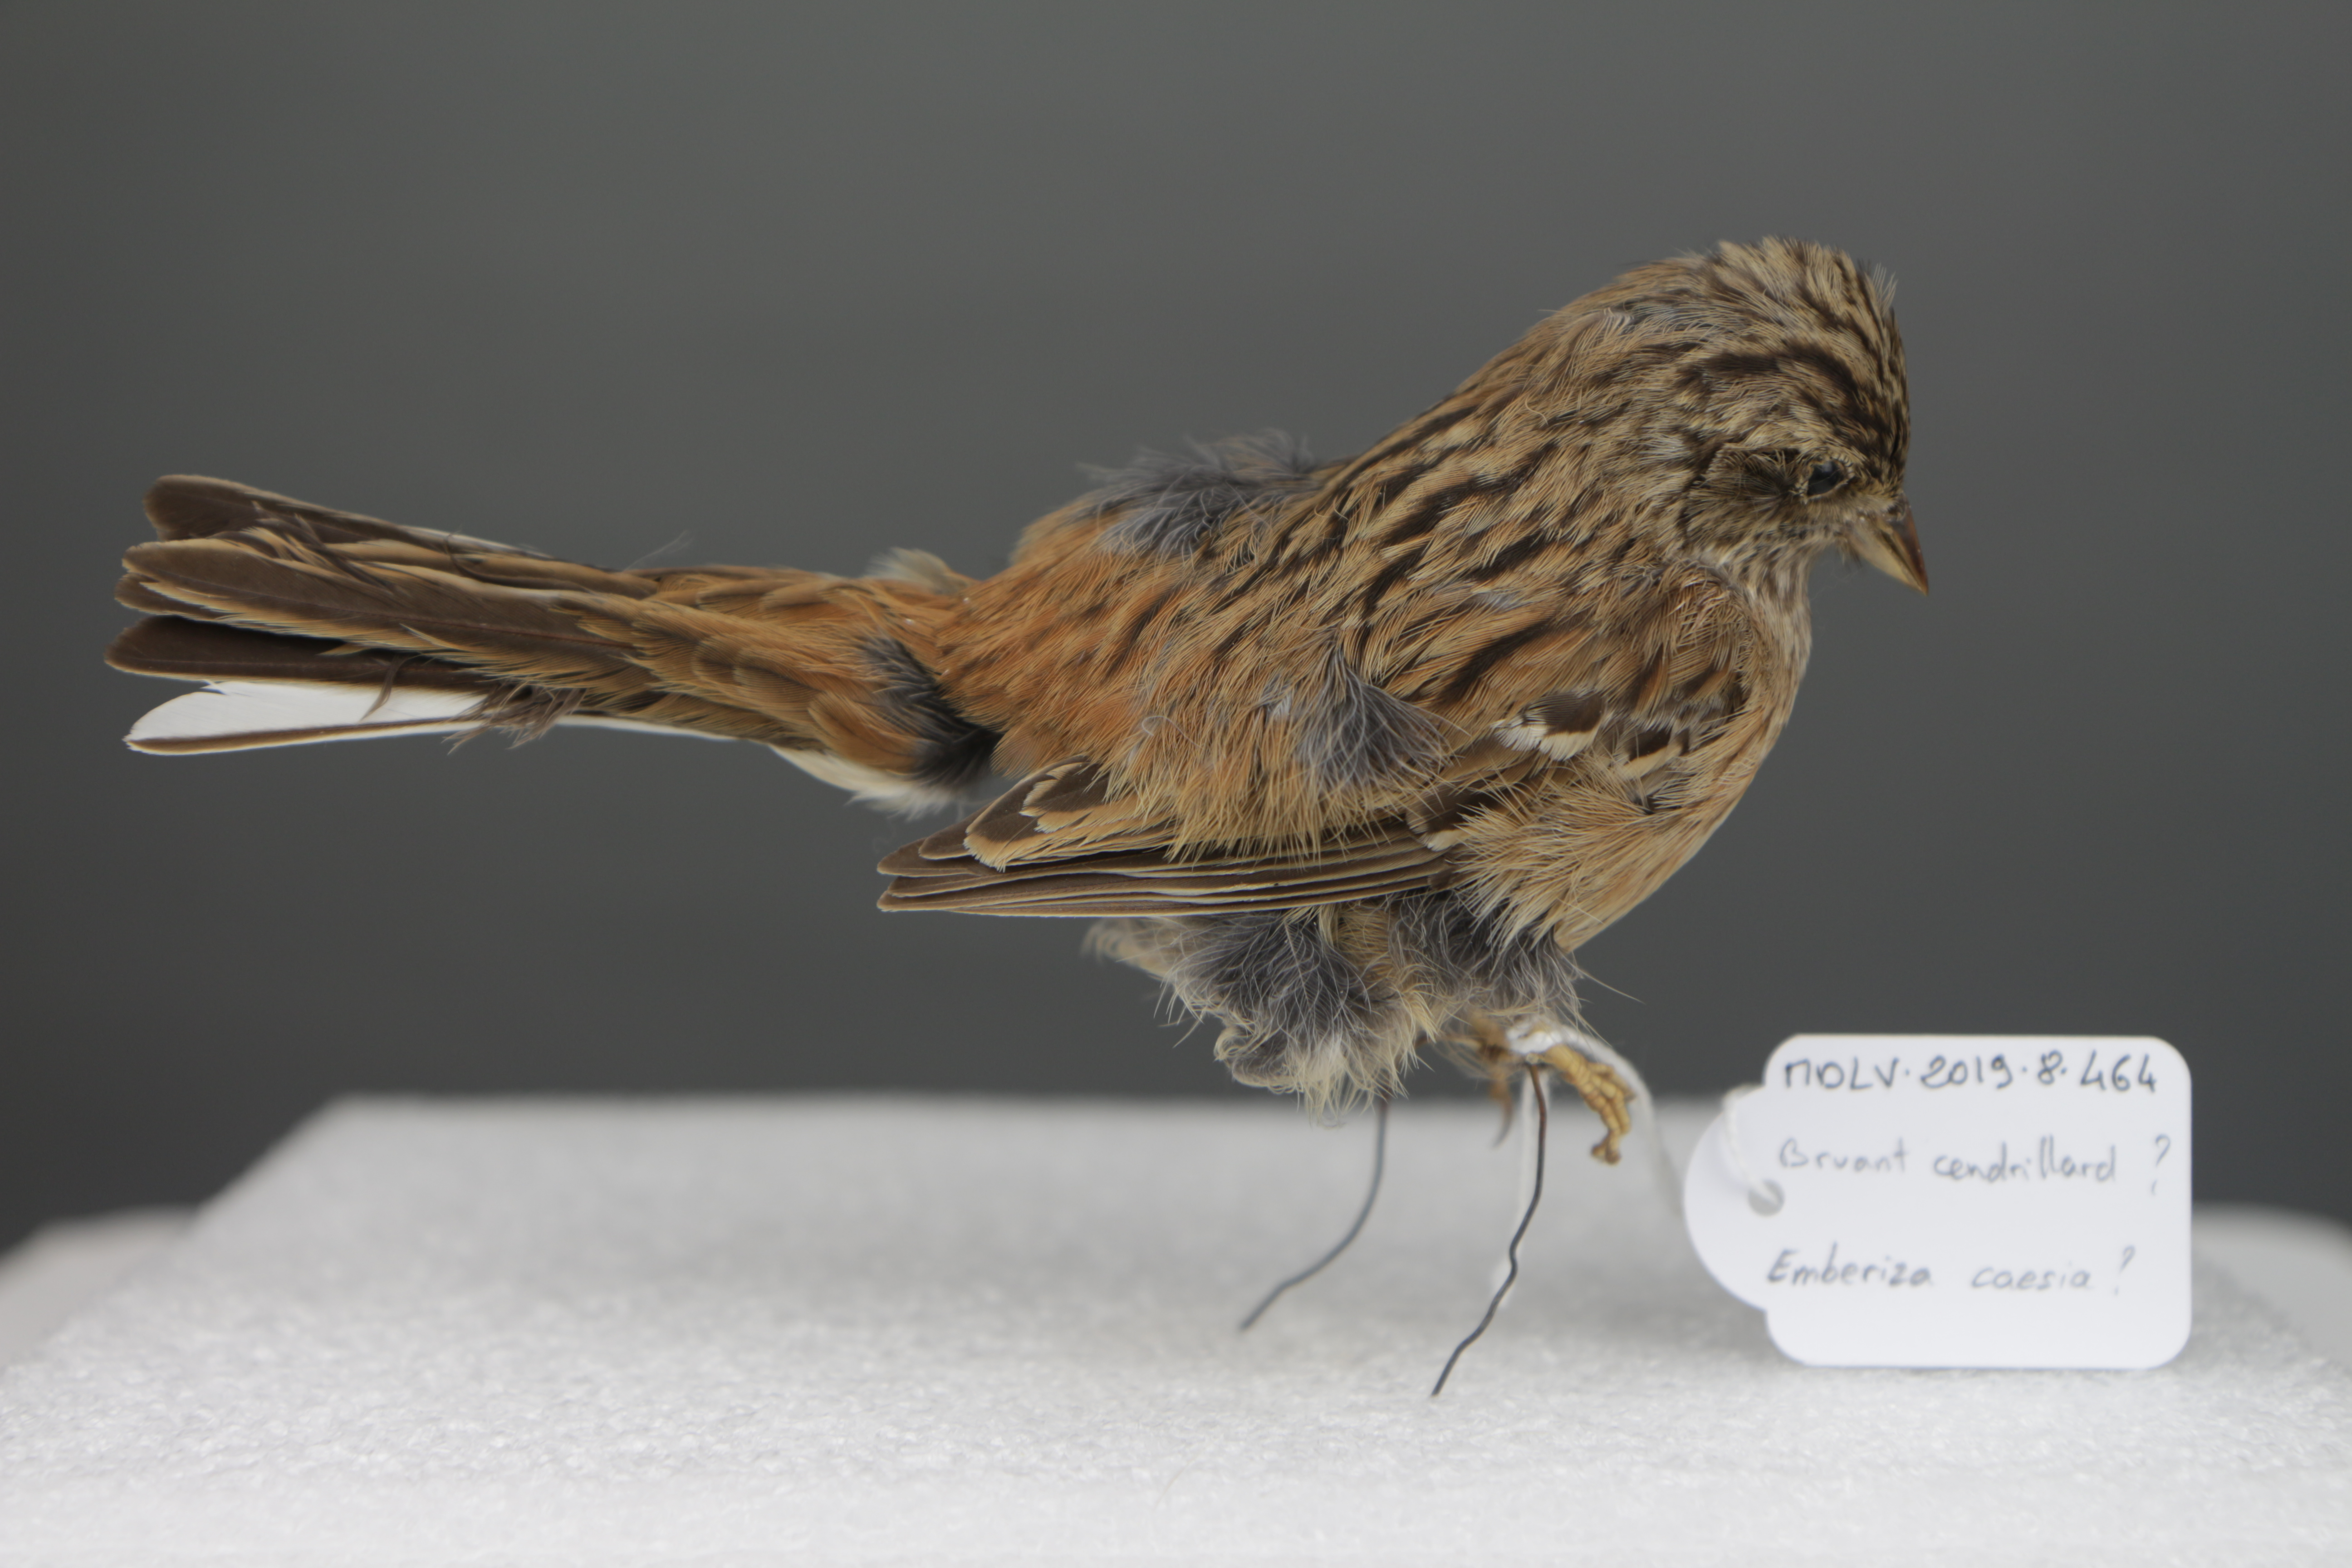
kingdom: Animalia
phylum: Chordata
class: Aves
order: Passeriformes
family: Emberizidae
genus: Emberiza
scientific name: Emberiza caesia
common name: Cretzschmar's bunting
